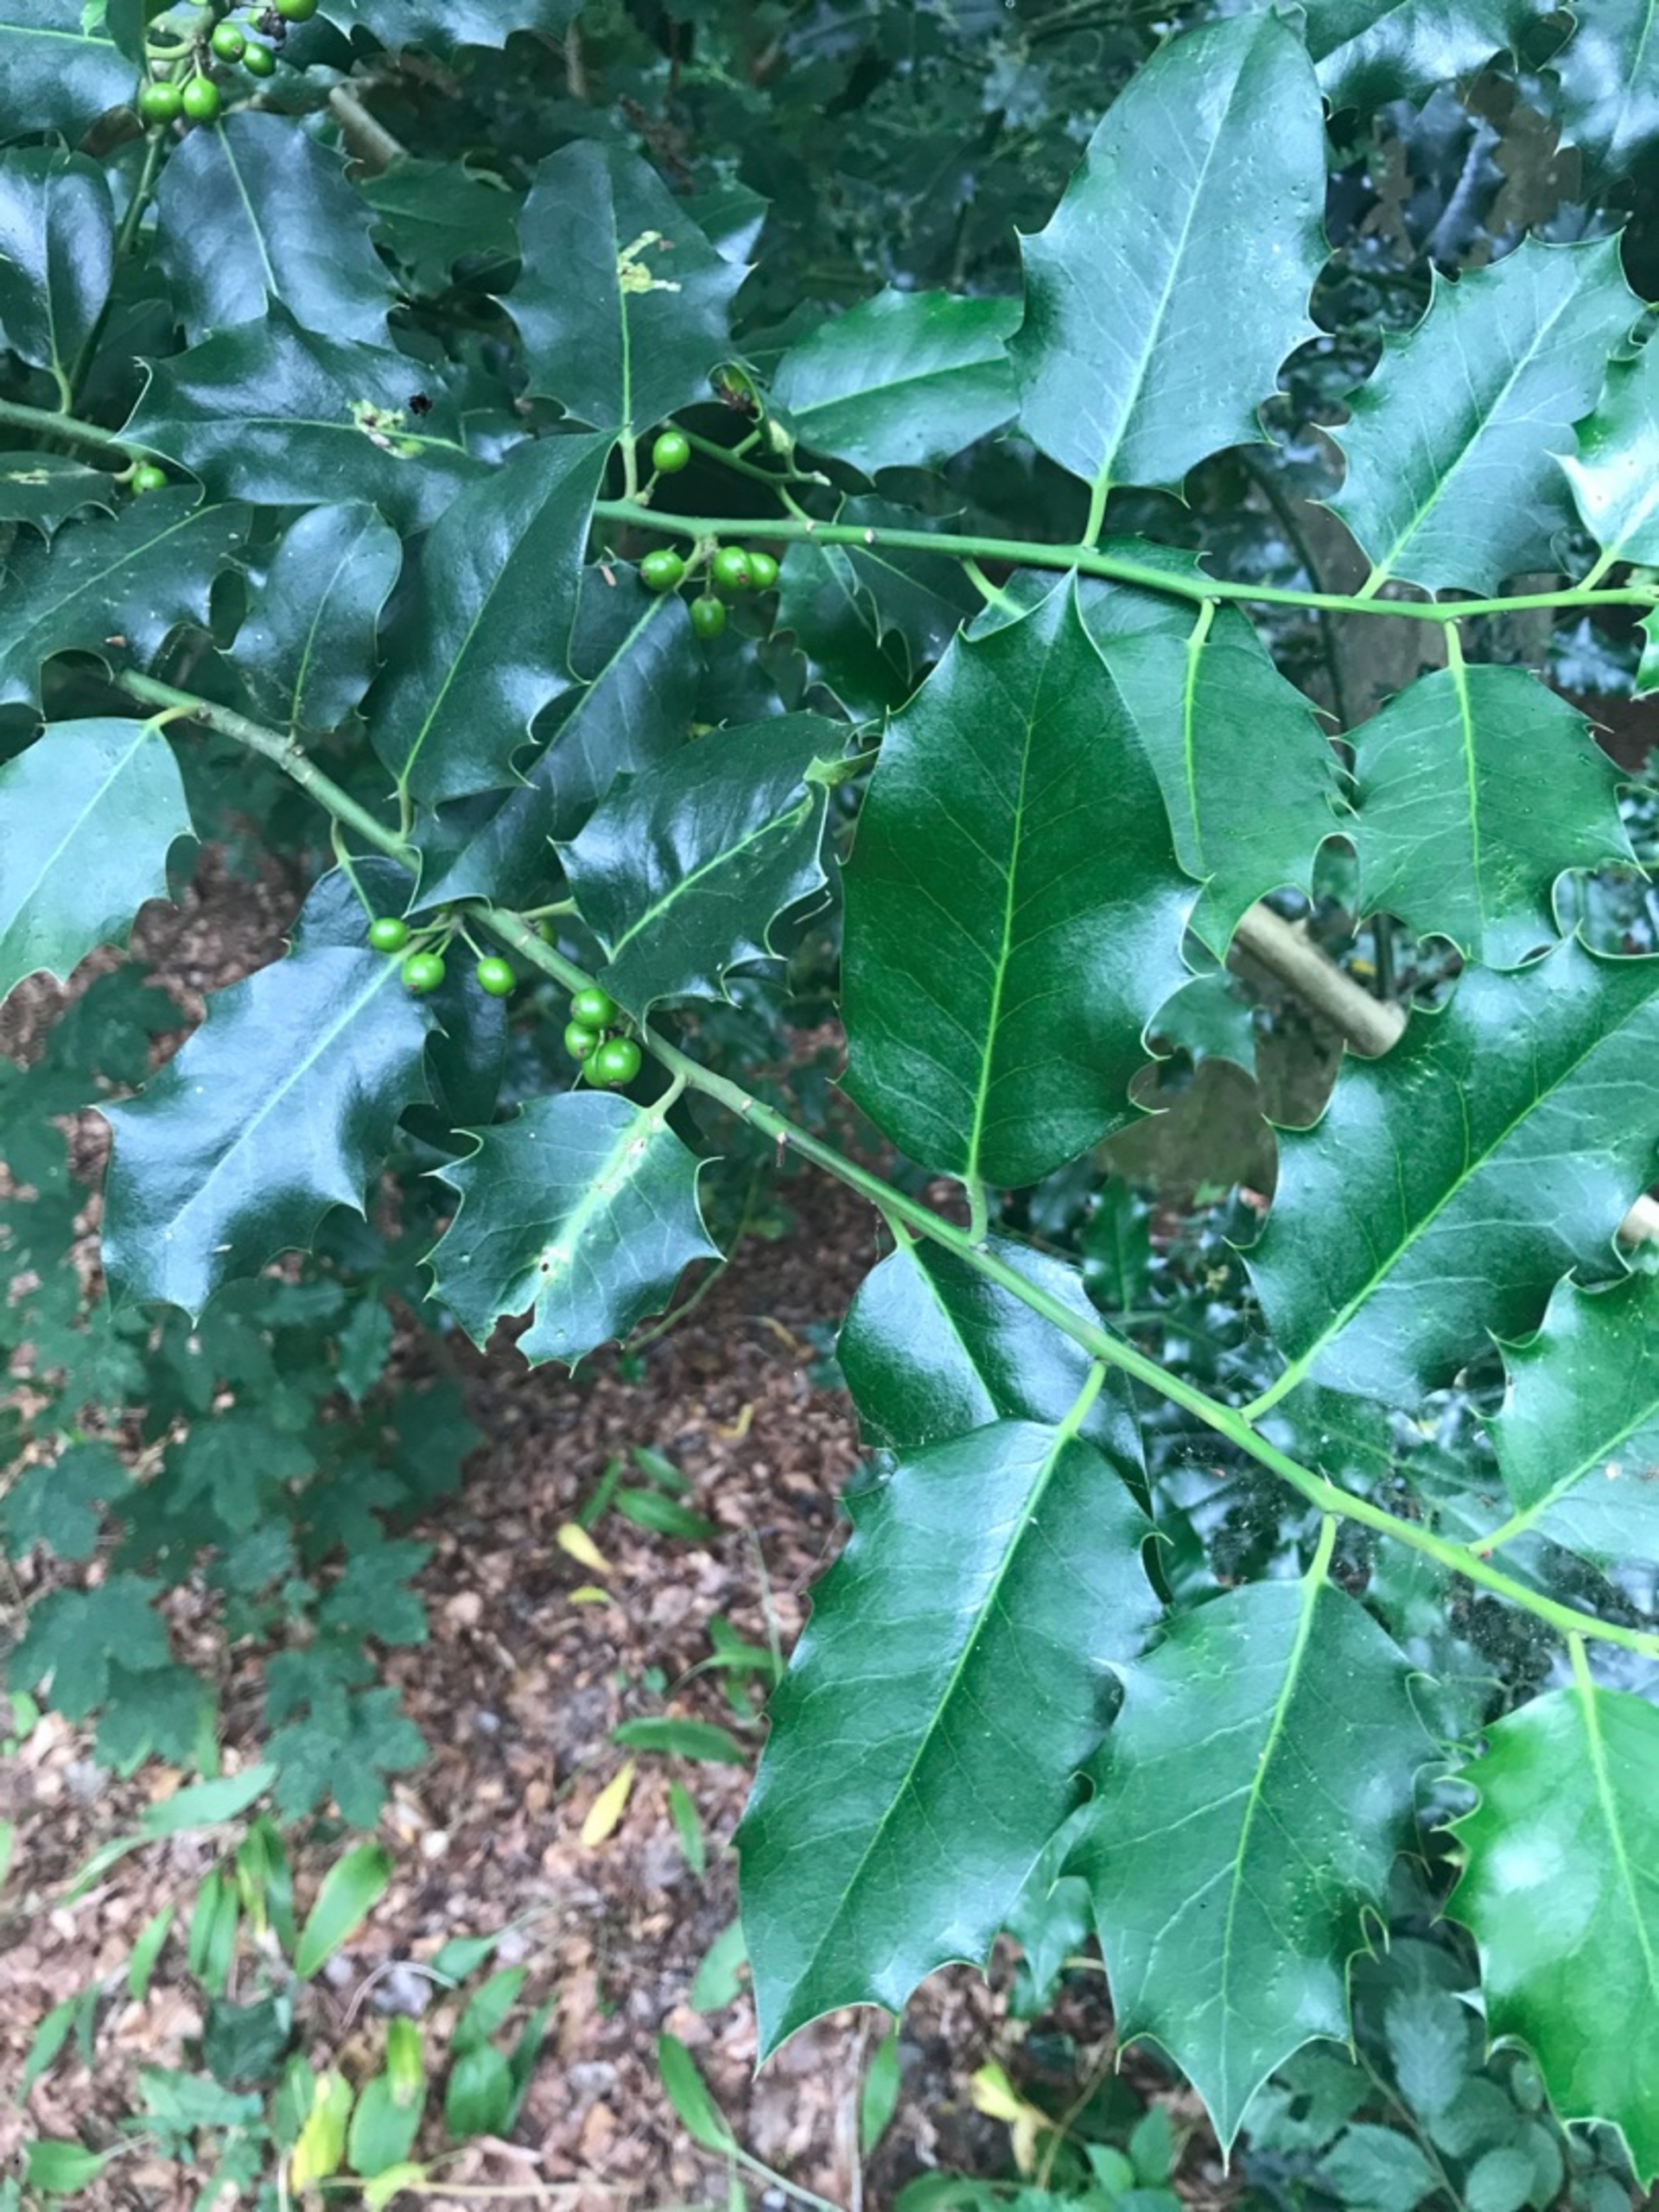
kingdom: Plantae
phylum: Tracheophyta
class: Magnoliopsida
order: Aquifoliales
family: Aquifoliaceae
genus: Ilex
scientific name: Ilex aquifolium
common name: Kristtorn
